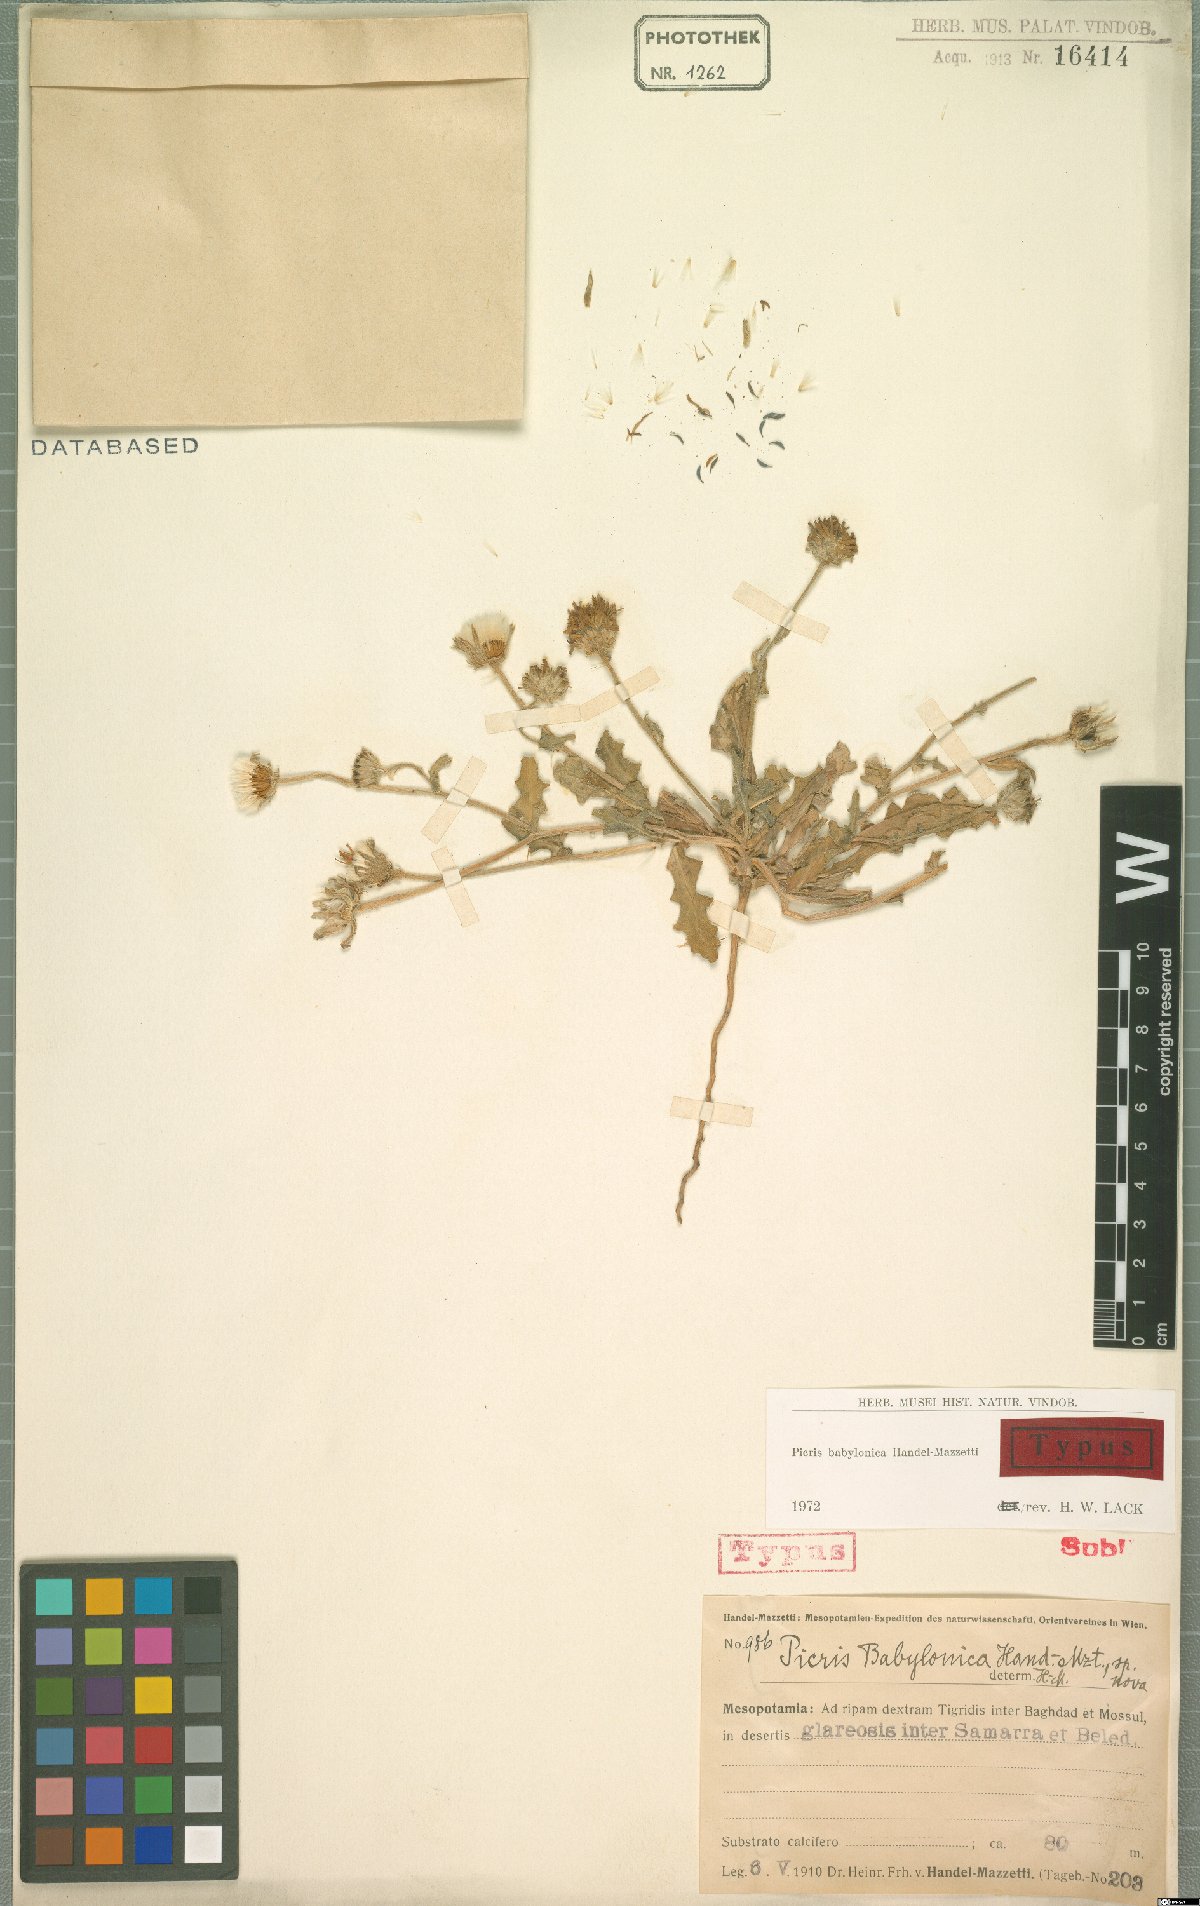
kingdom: Plantae
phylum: Tracheophyta
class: Magnoliopsida
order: Asterales
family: Asteraceae
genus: Picris
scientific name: Picris babylonica
